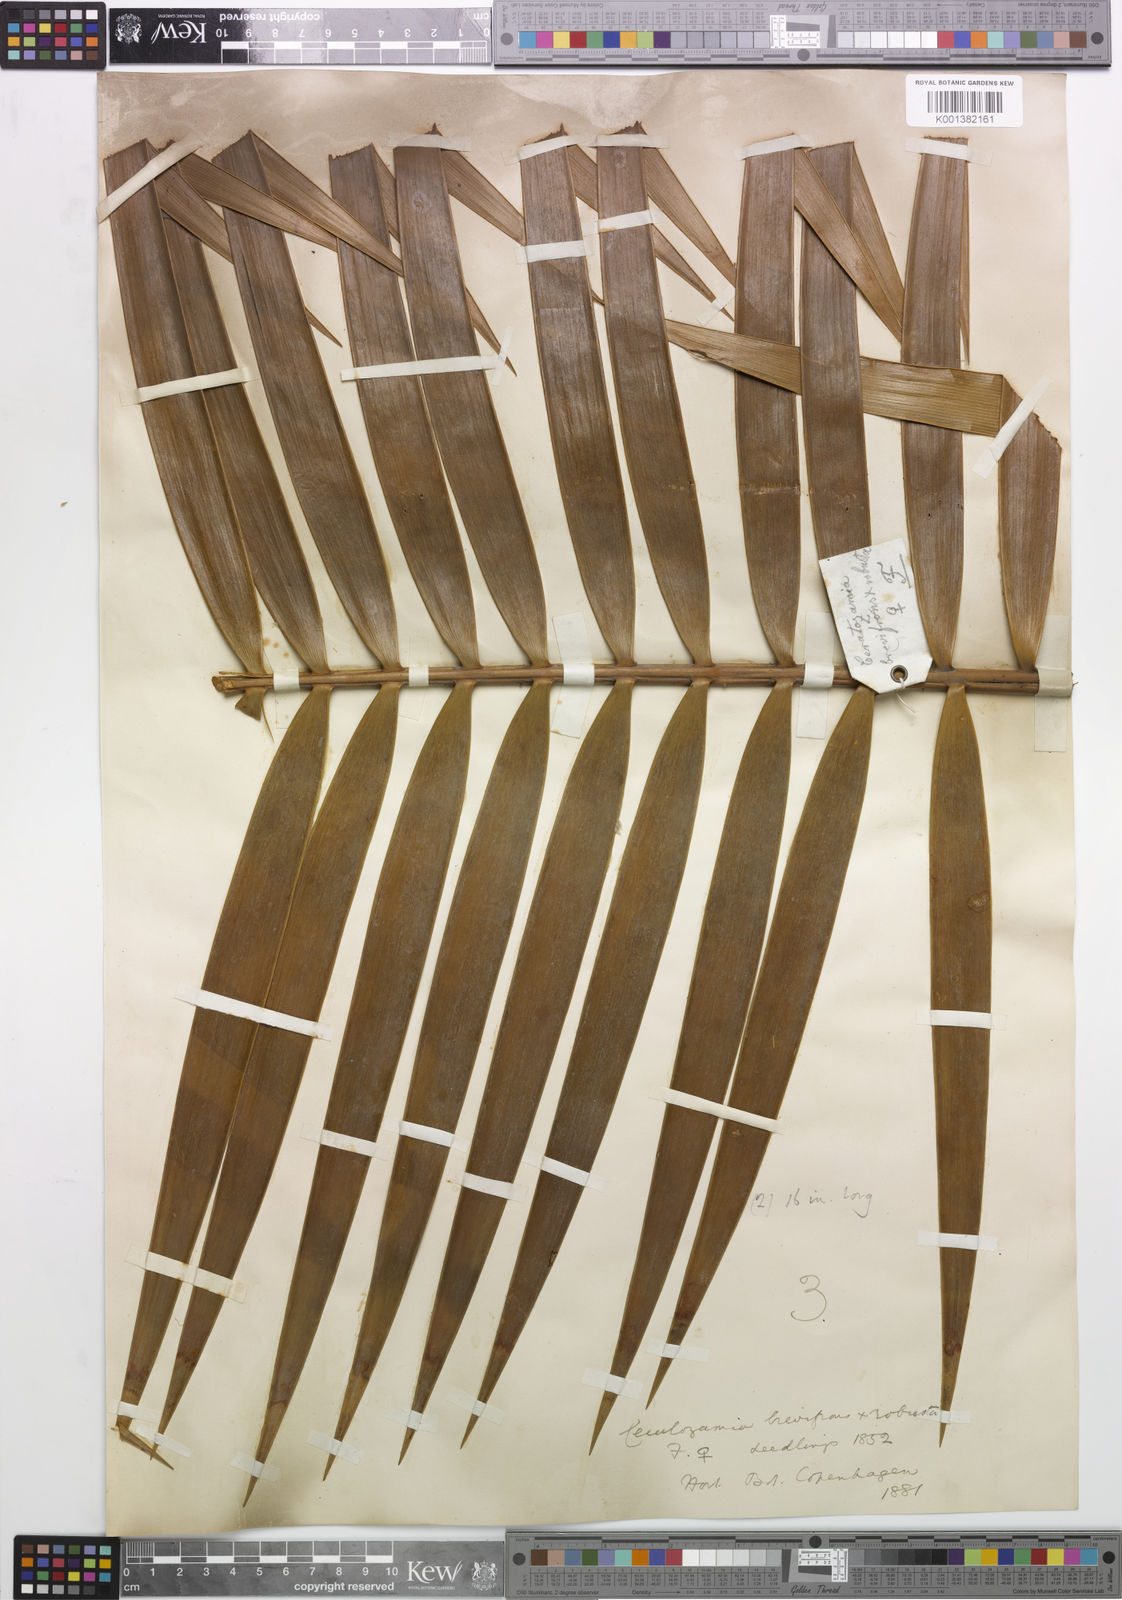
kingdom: Plantae
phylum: Tracheophyta
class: Cycadopsida
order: Cycadales
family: Zamiaceae
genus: Ceratozamia
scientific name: Ceratozamia brevifrons
